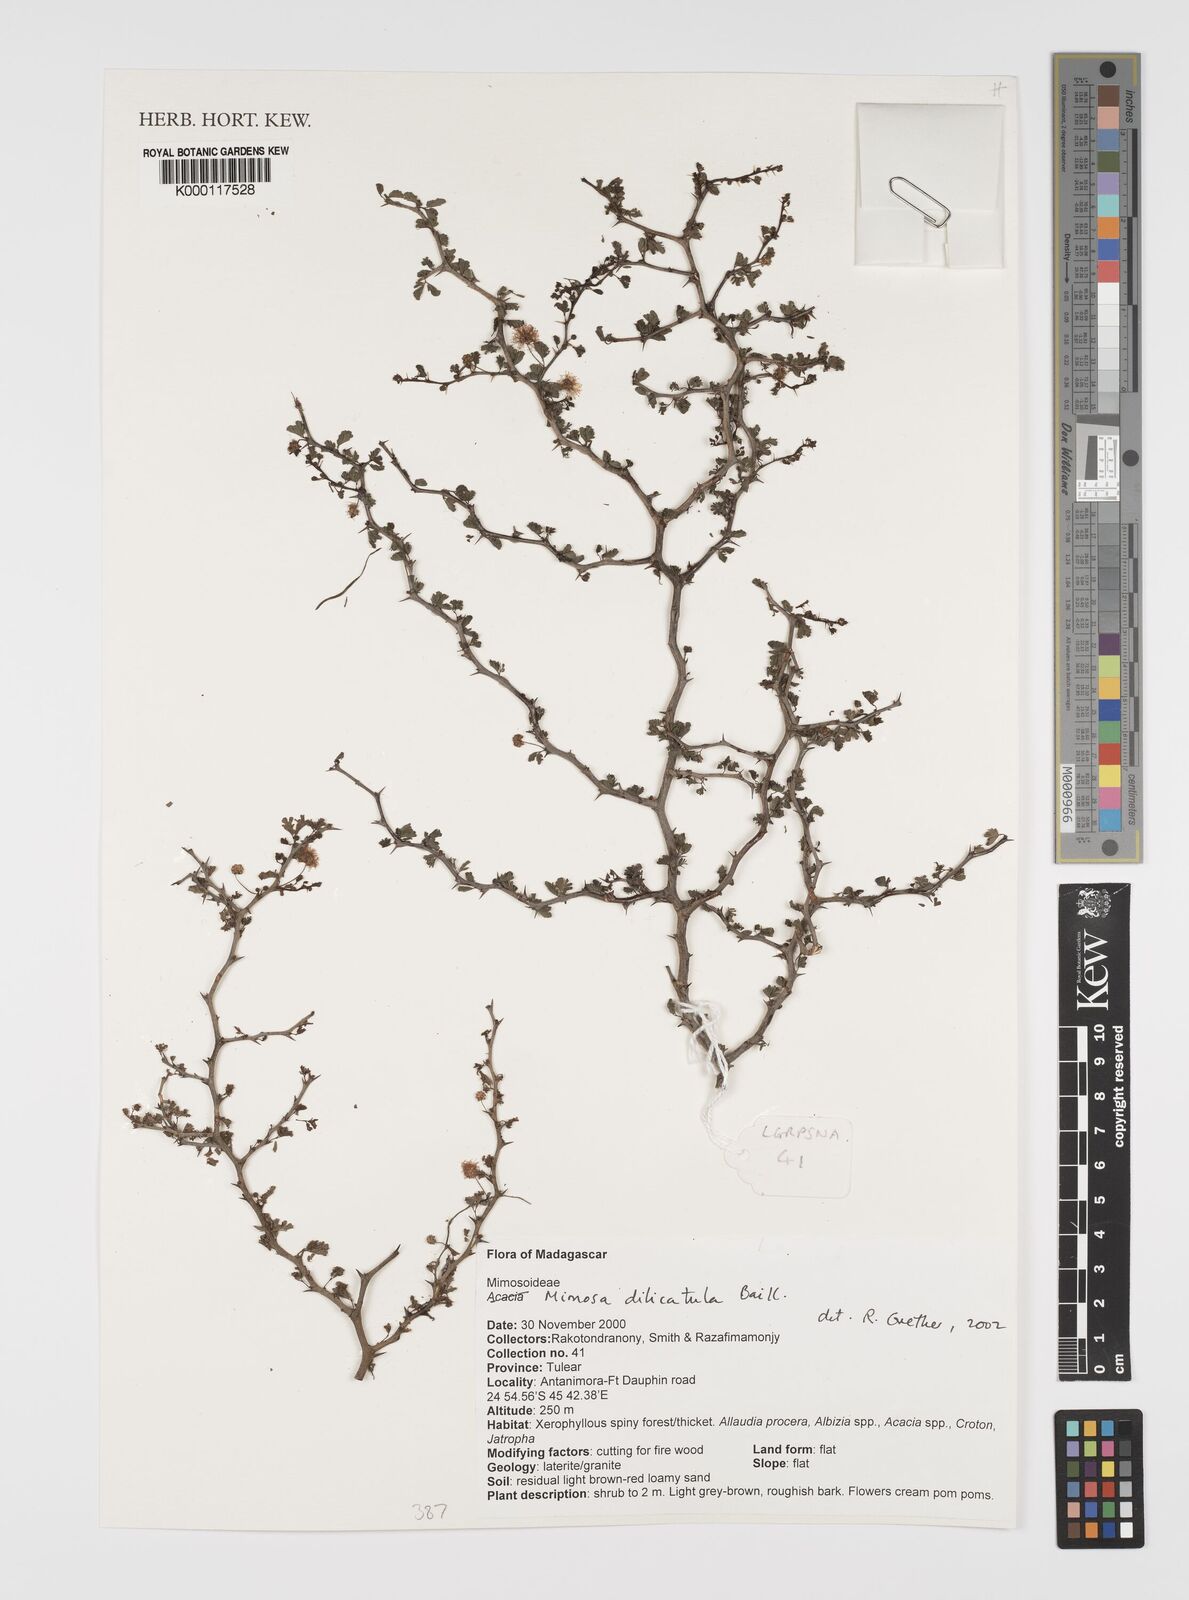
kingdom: Plantae
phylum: Tracheophyta
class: Magnoliopsida
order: Fabales
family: Fabaceae
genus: Mimosa
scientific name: Mimosa
